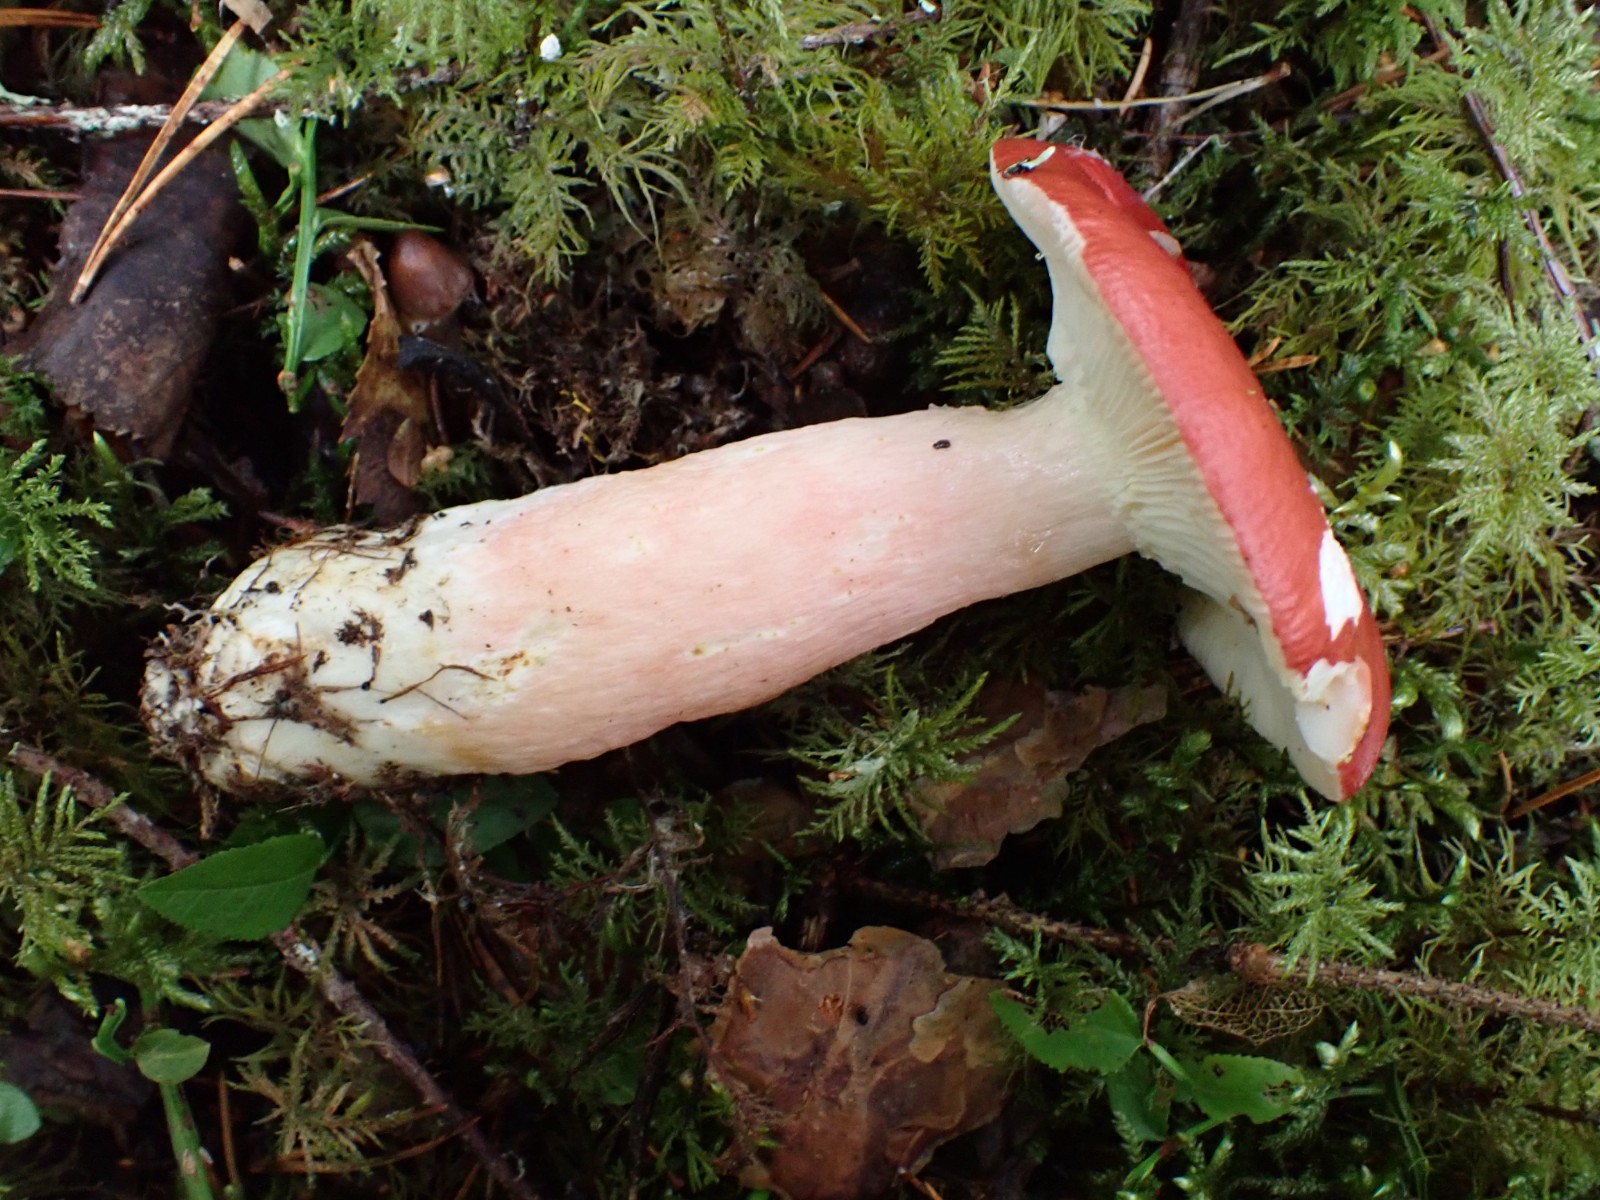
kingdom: Fungi
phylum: Basidiomycota
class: Agaricomycetes
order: Russulales
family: Russulaceae
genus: Russula
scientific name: Russula rhodopus
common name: lak-skørhat
